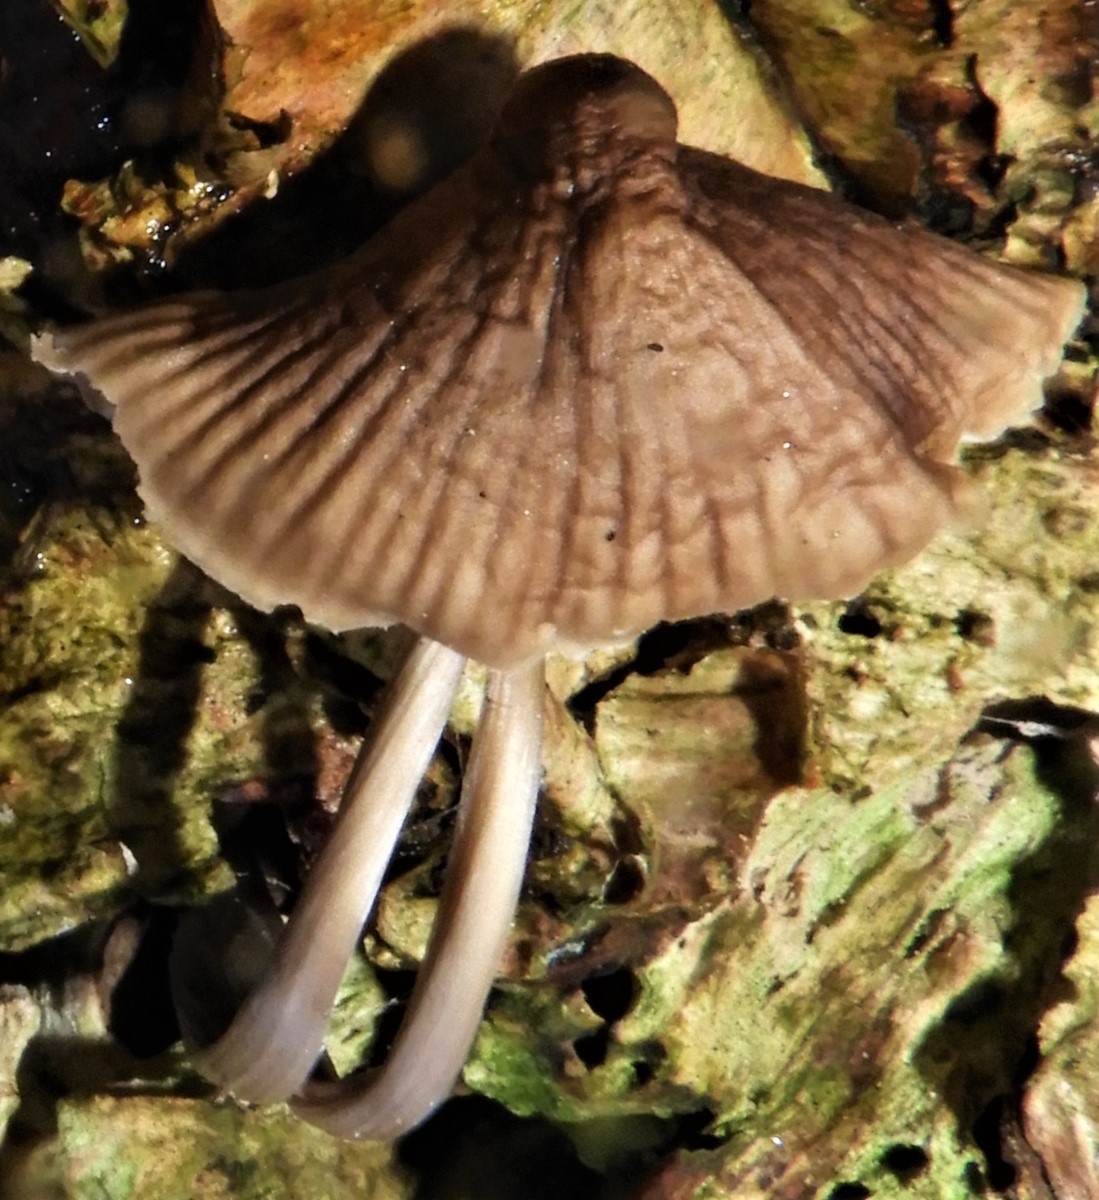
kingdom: Fungi
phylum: Basidiomycota
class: Agaricomycetes
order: Agaricales
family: Mycenaceae
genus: Mycena
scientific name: Mycena polygramma
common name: mangestribet huesvamp
